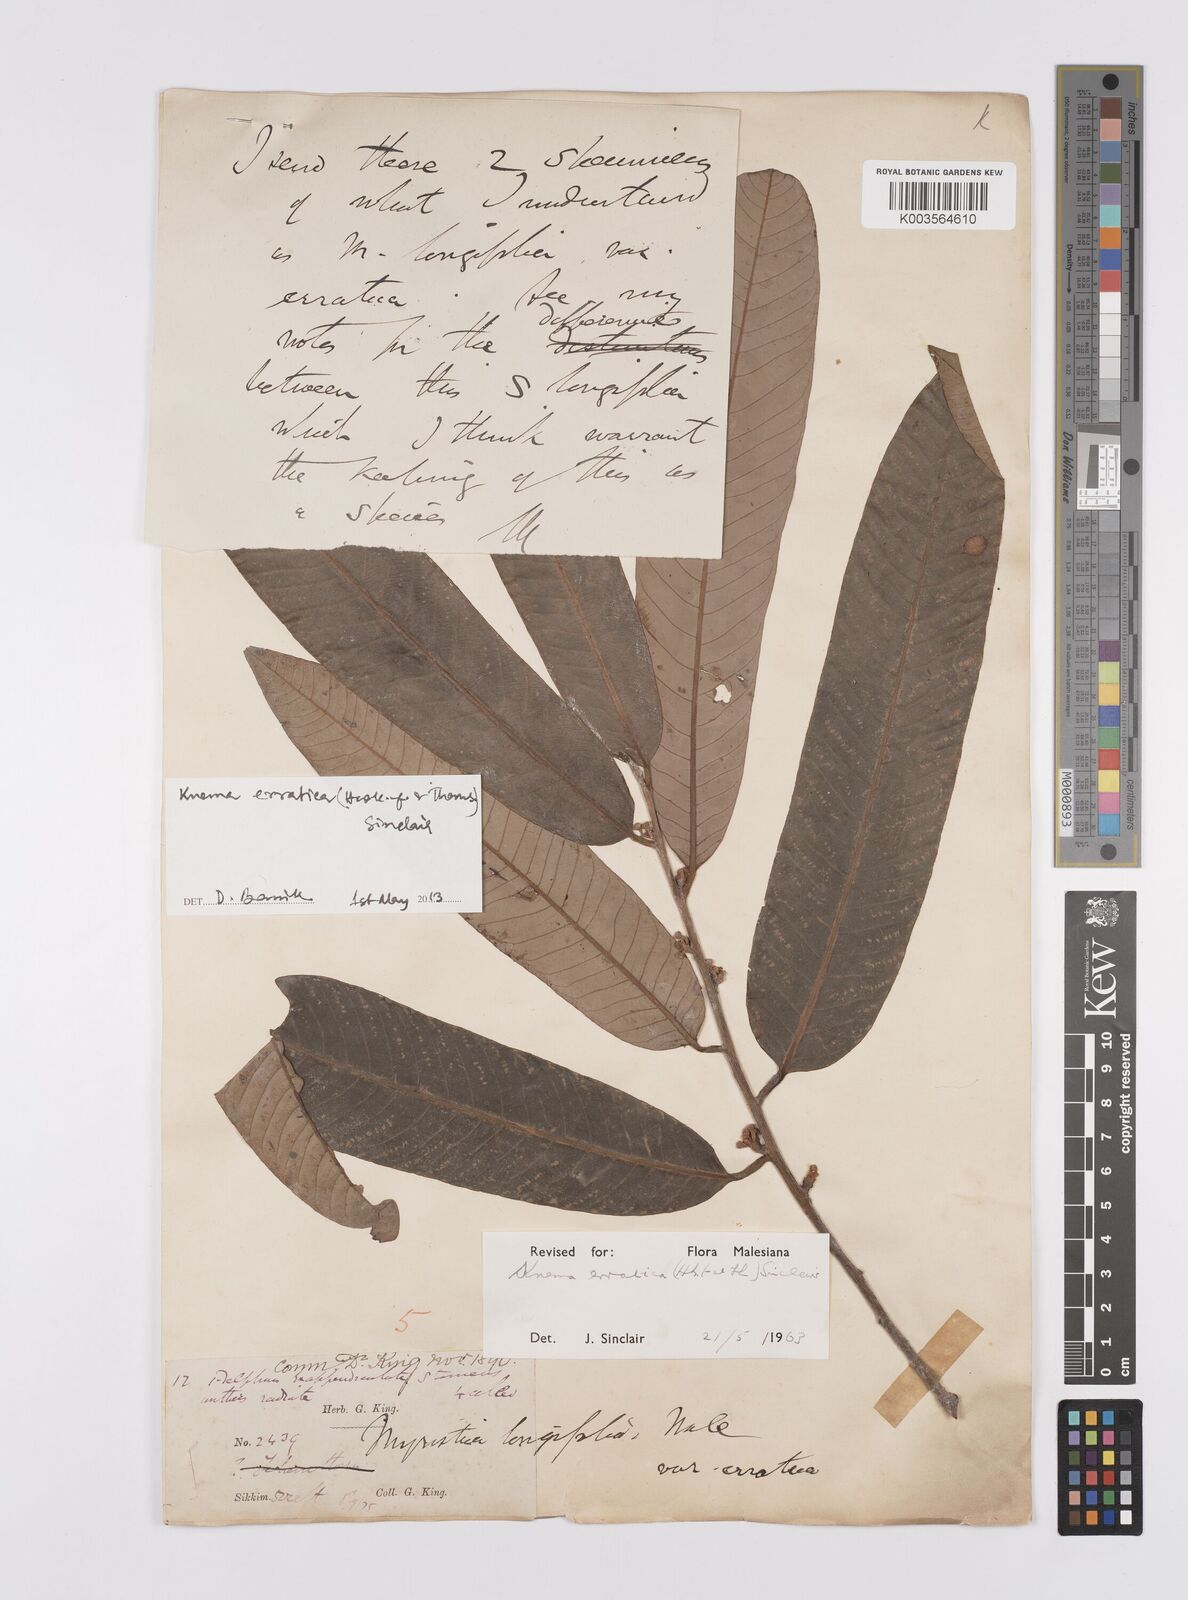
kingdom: Plantae
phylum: Tracheophyta
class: Magnoliopsida
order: Magnoliales
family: Myristicaceae
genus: Knema
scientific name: Knema erratica
